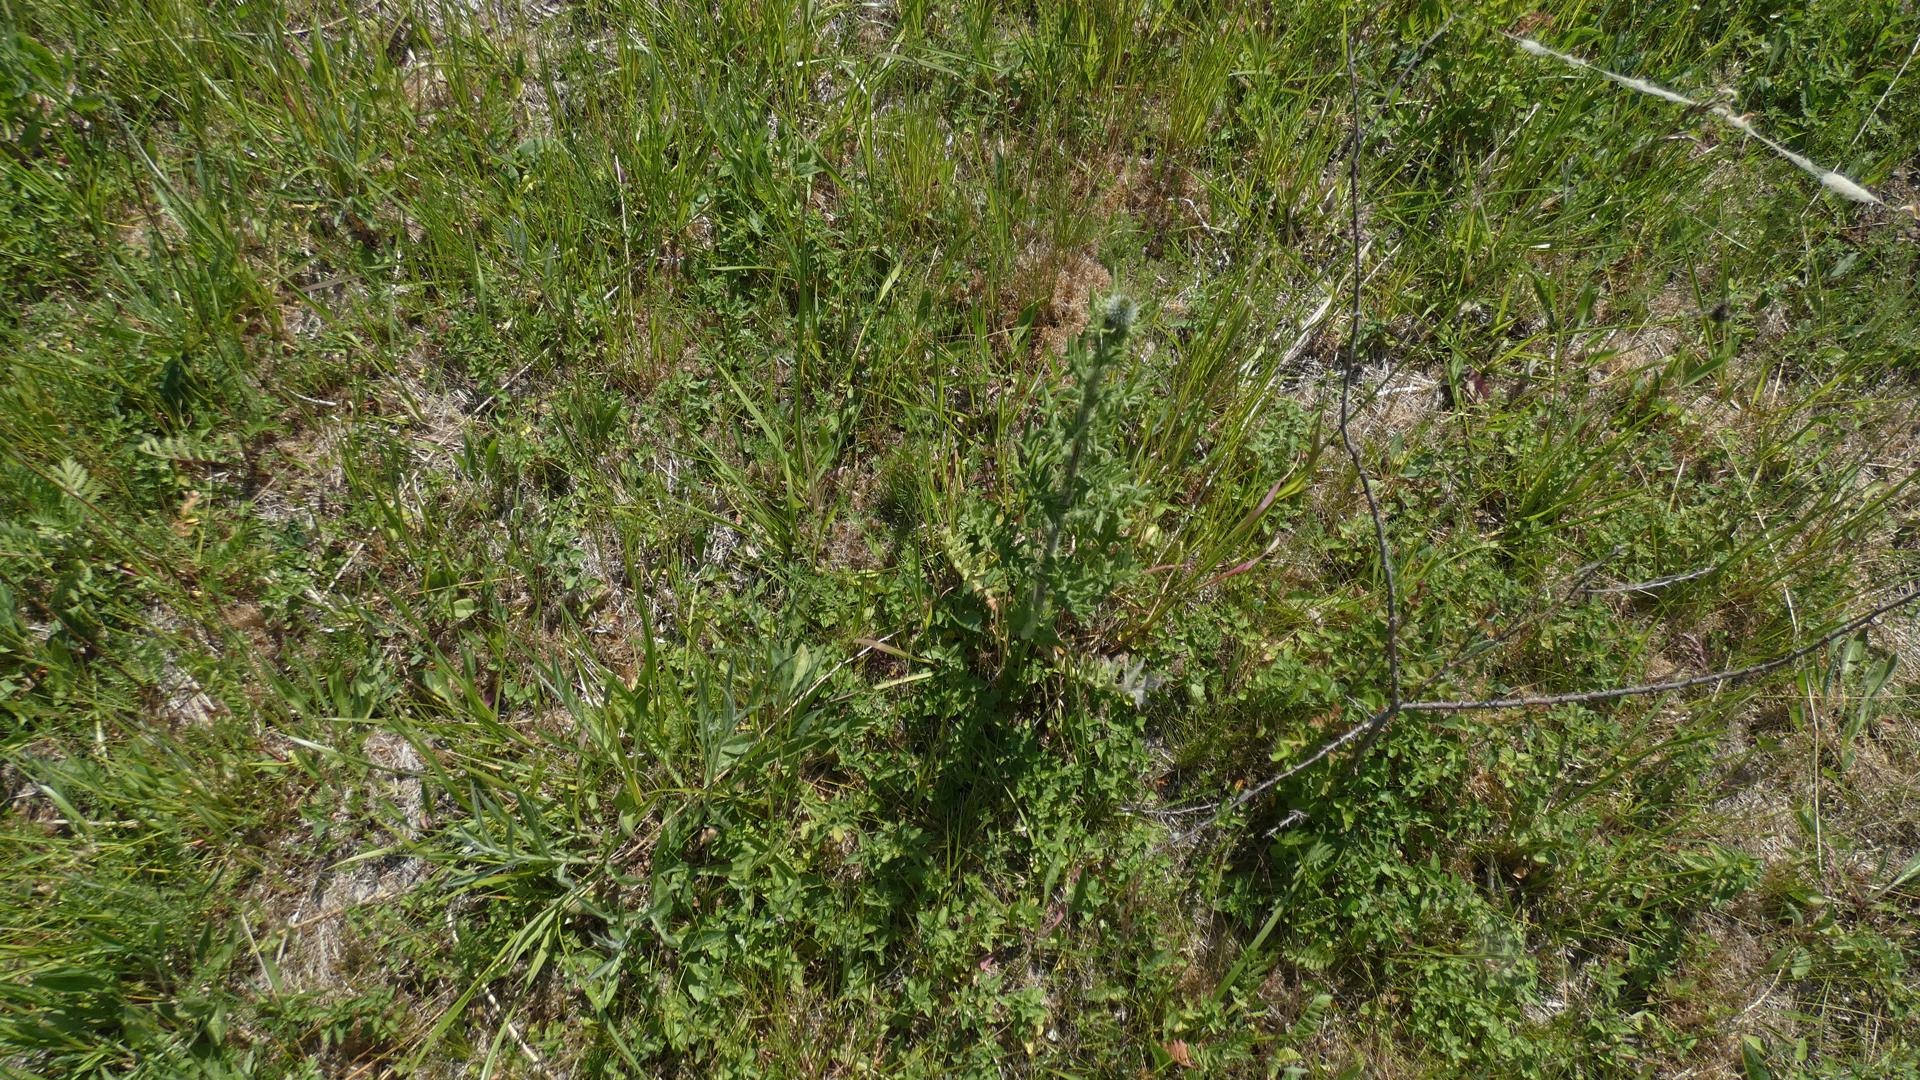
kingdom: Plantae
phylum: Tracheophyta
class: Magnoliopsida
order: Asterales
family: Asteraceae
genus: Cirsium
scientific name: Cirsium vulgare
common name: Horse-tidsel
